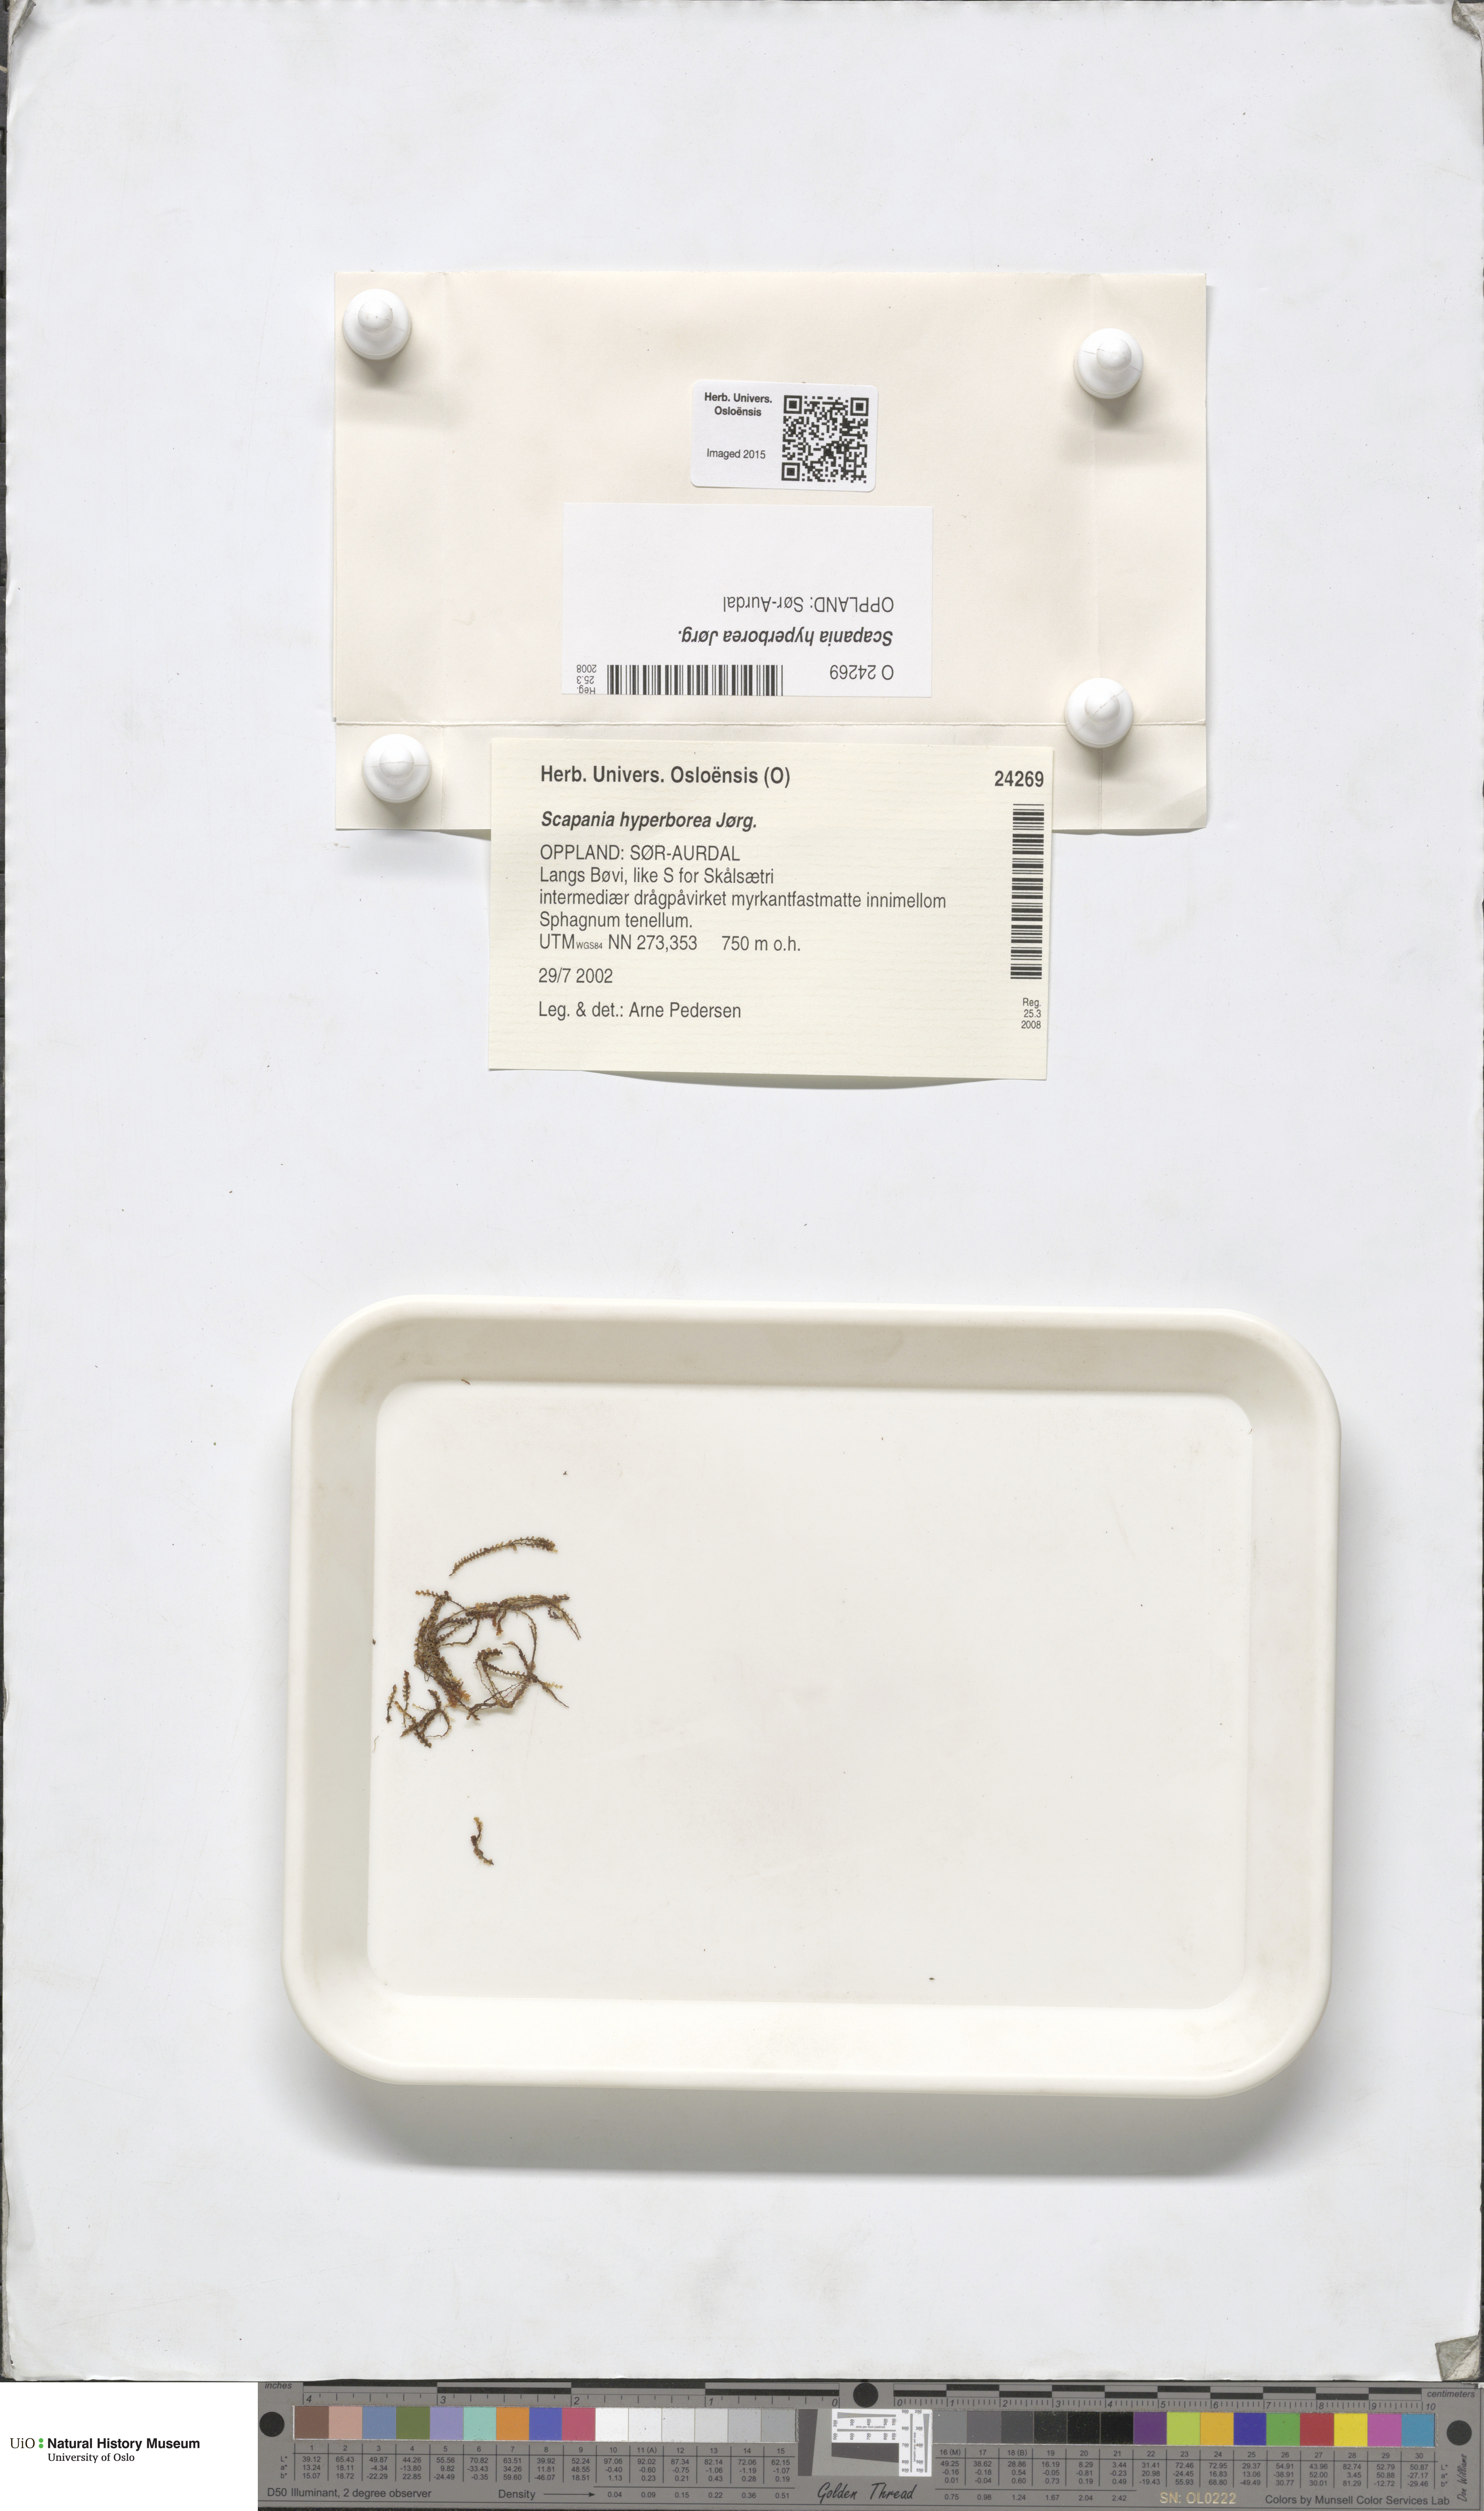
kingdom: Plantae
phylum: Marchantiophyta
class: Jungermanniopsida
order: Jungermanniales
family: Scapaniaceae
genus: Scapania
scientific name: Scapania hyperborea
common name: Northern earwort
